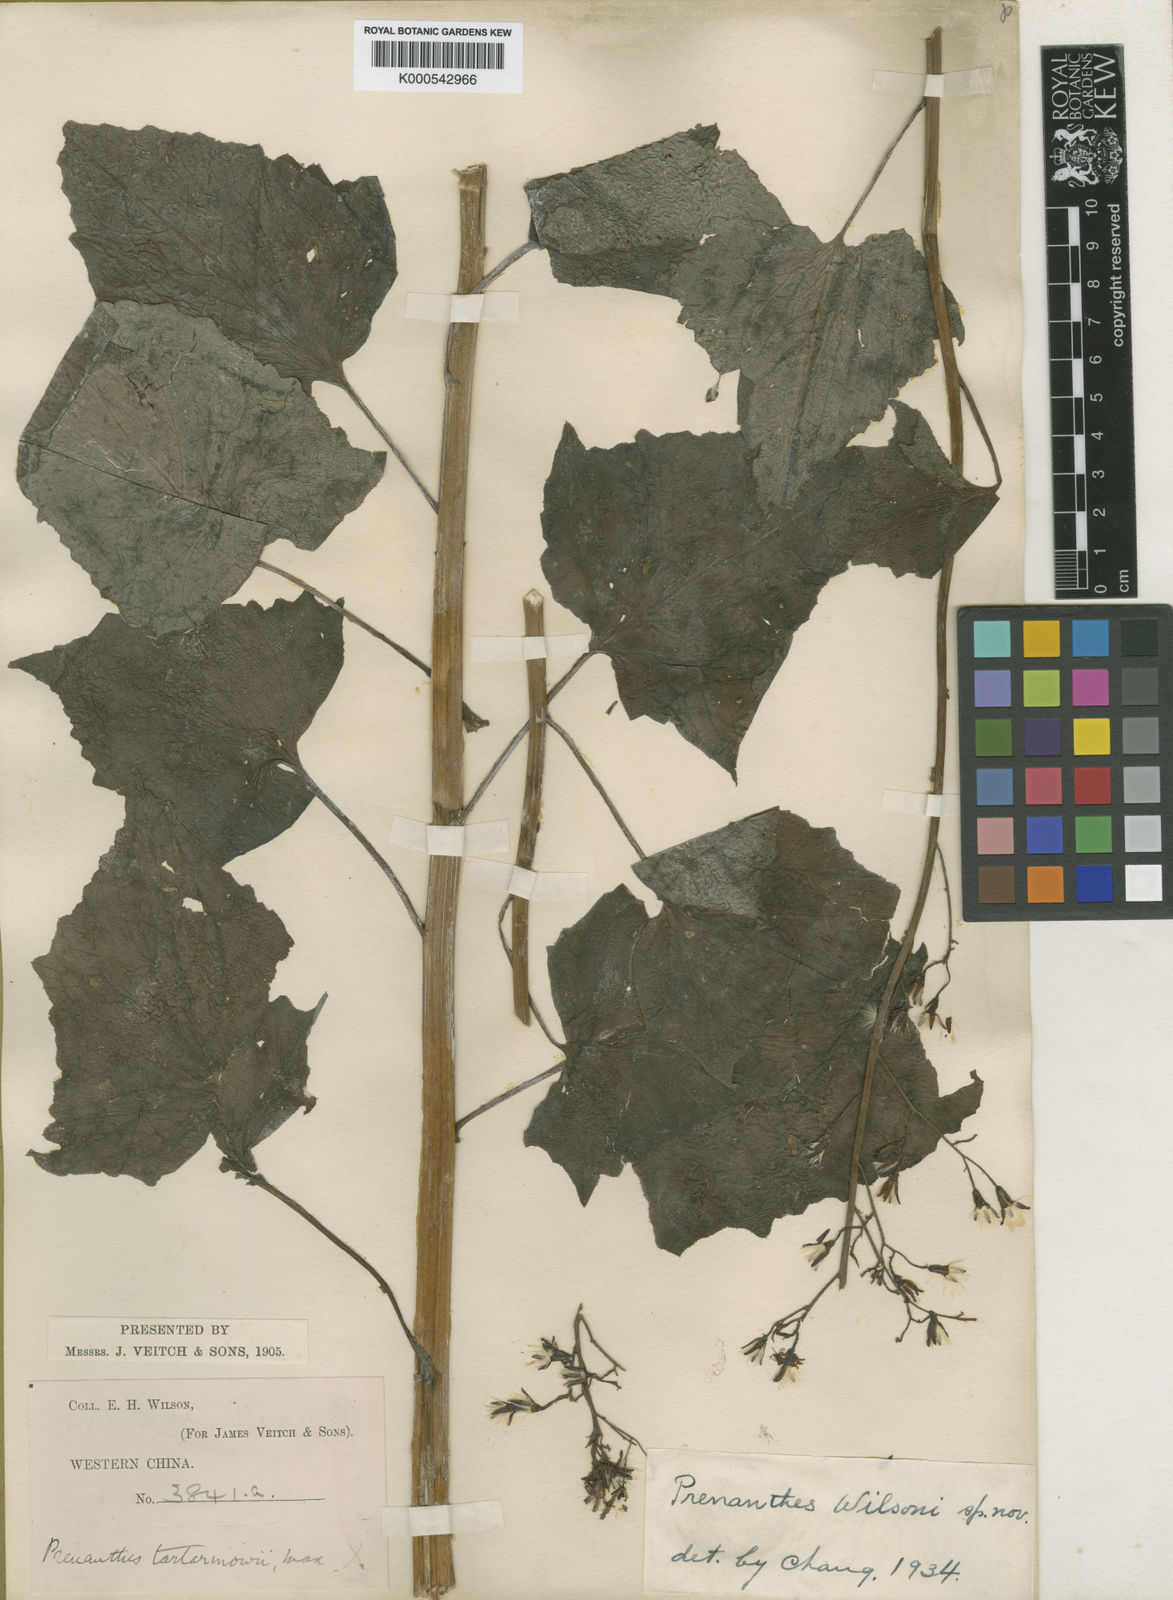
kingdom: Plantae
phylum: Tracheophyta
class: Magnoliopsida
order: Asterales
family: Asteraceae
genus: Paraprenanthes
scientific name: Paraprenanthes wilsonii
